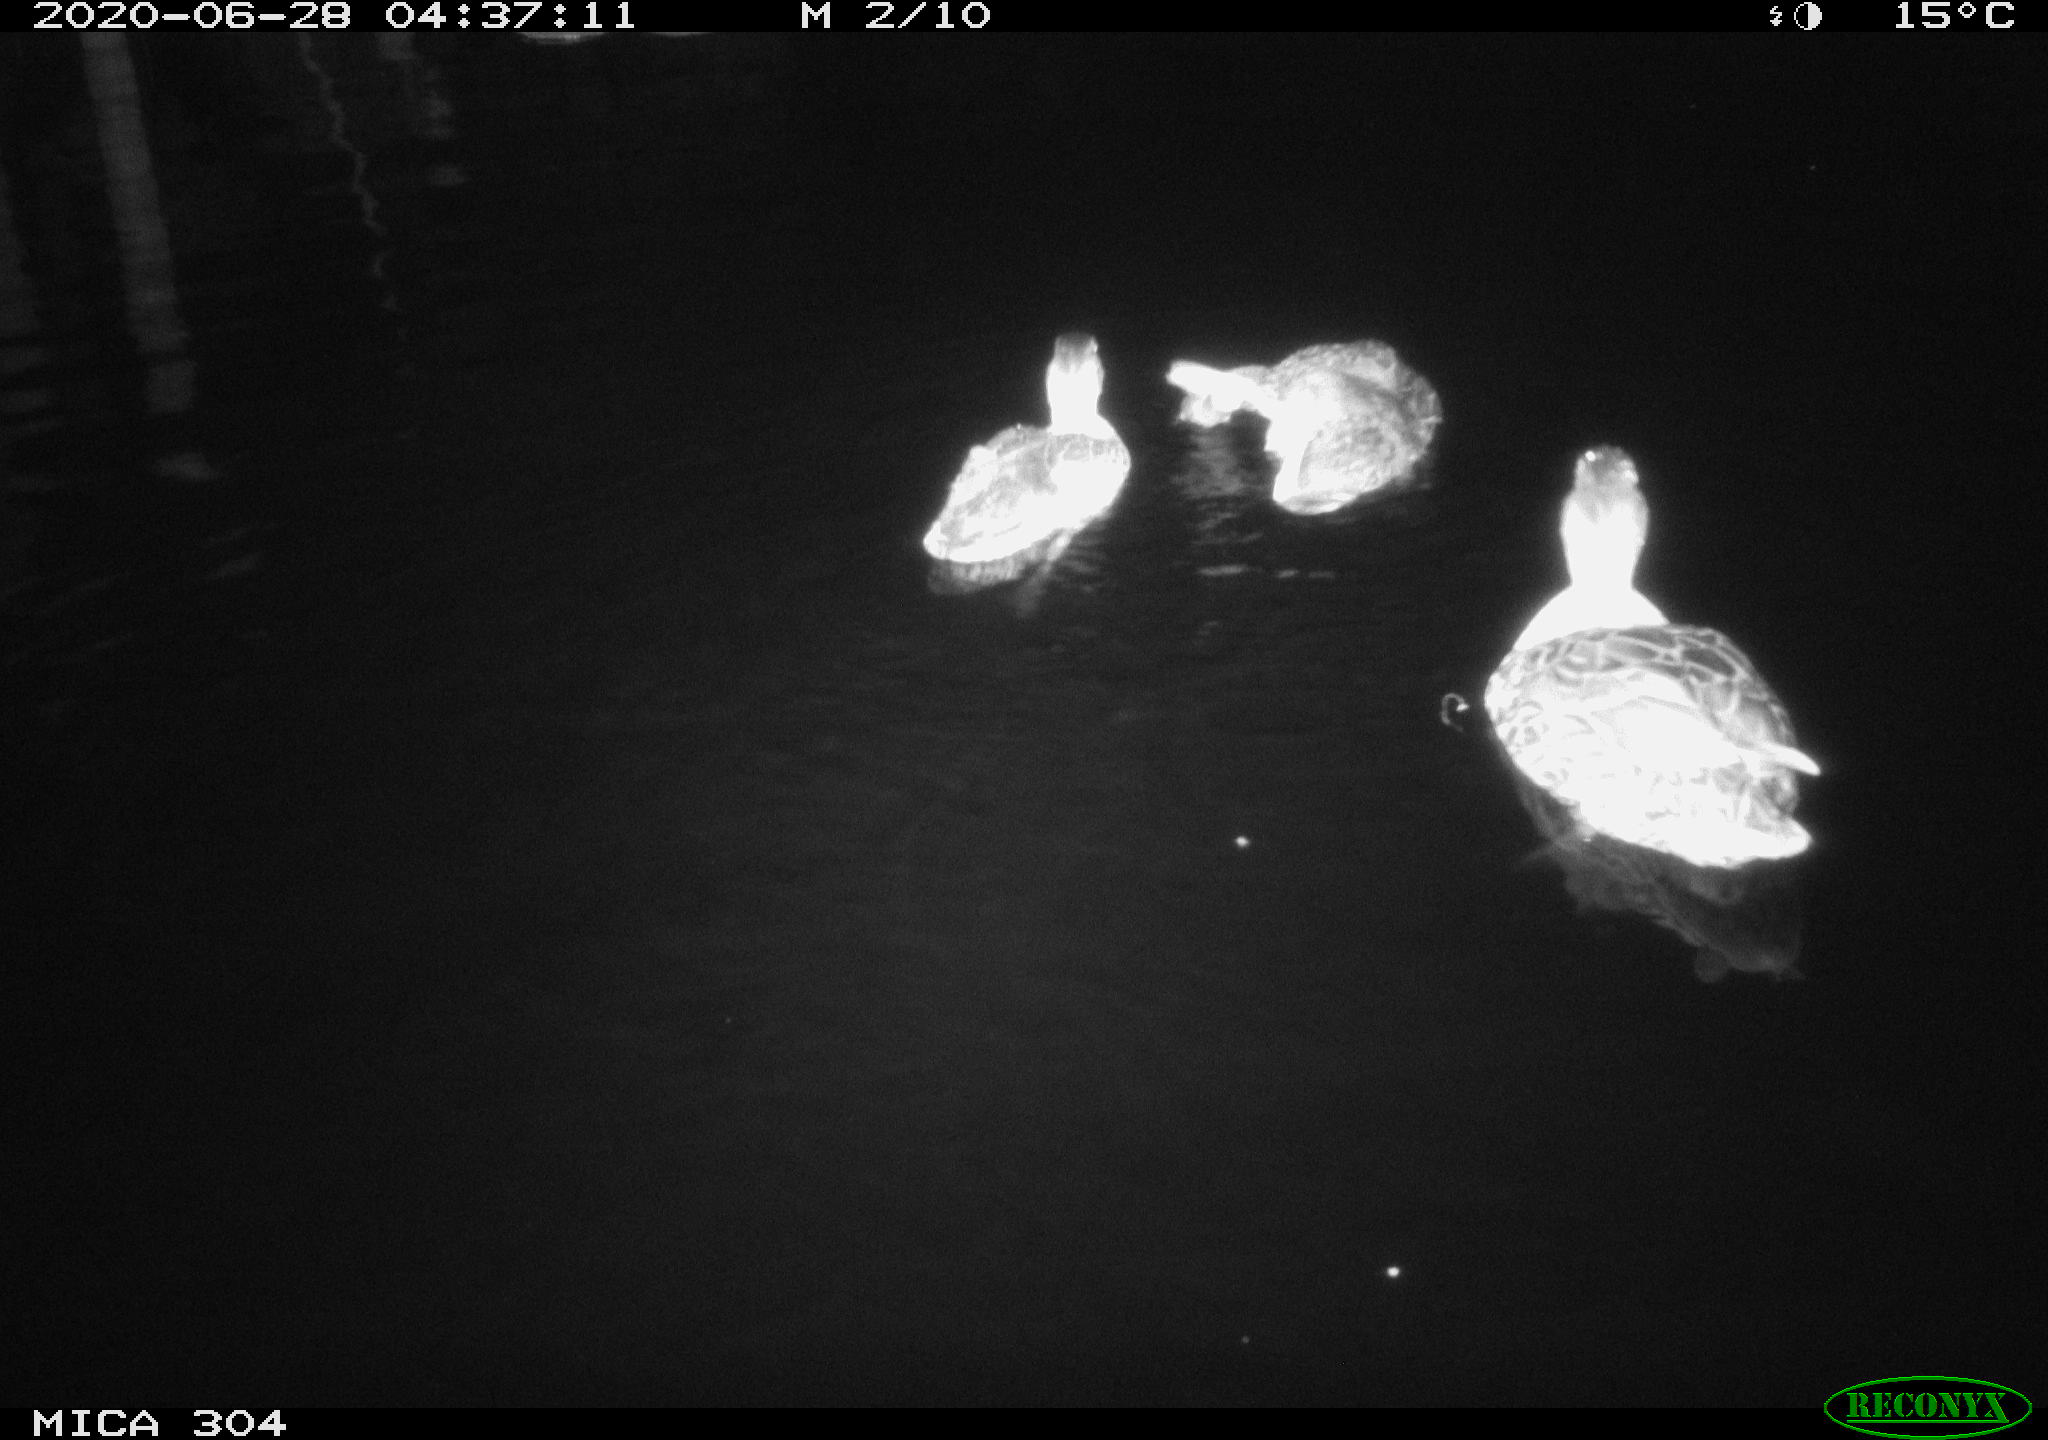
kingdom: Animalia
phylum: Chordata
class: Aves
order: Anseriformes
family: Anatidae
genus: Anas
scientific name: Anas platyrhynchos
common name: Mallard
